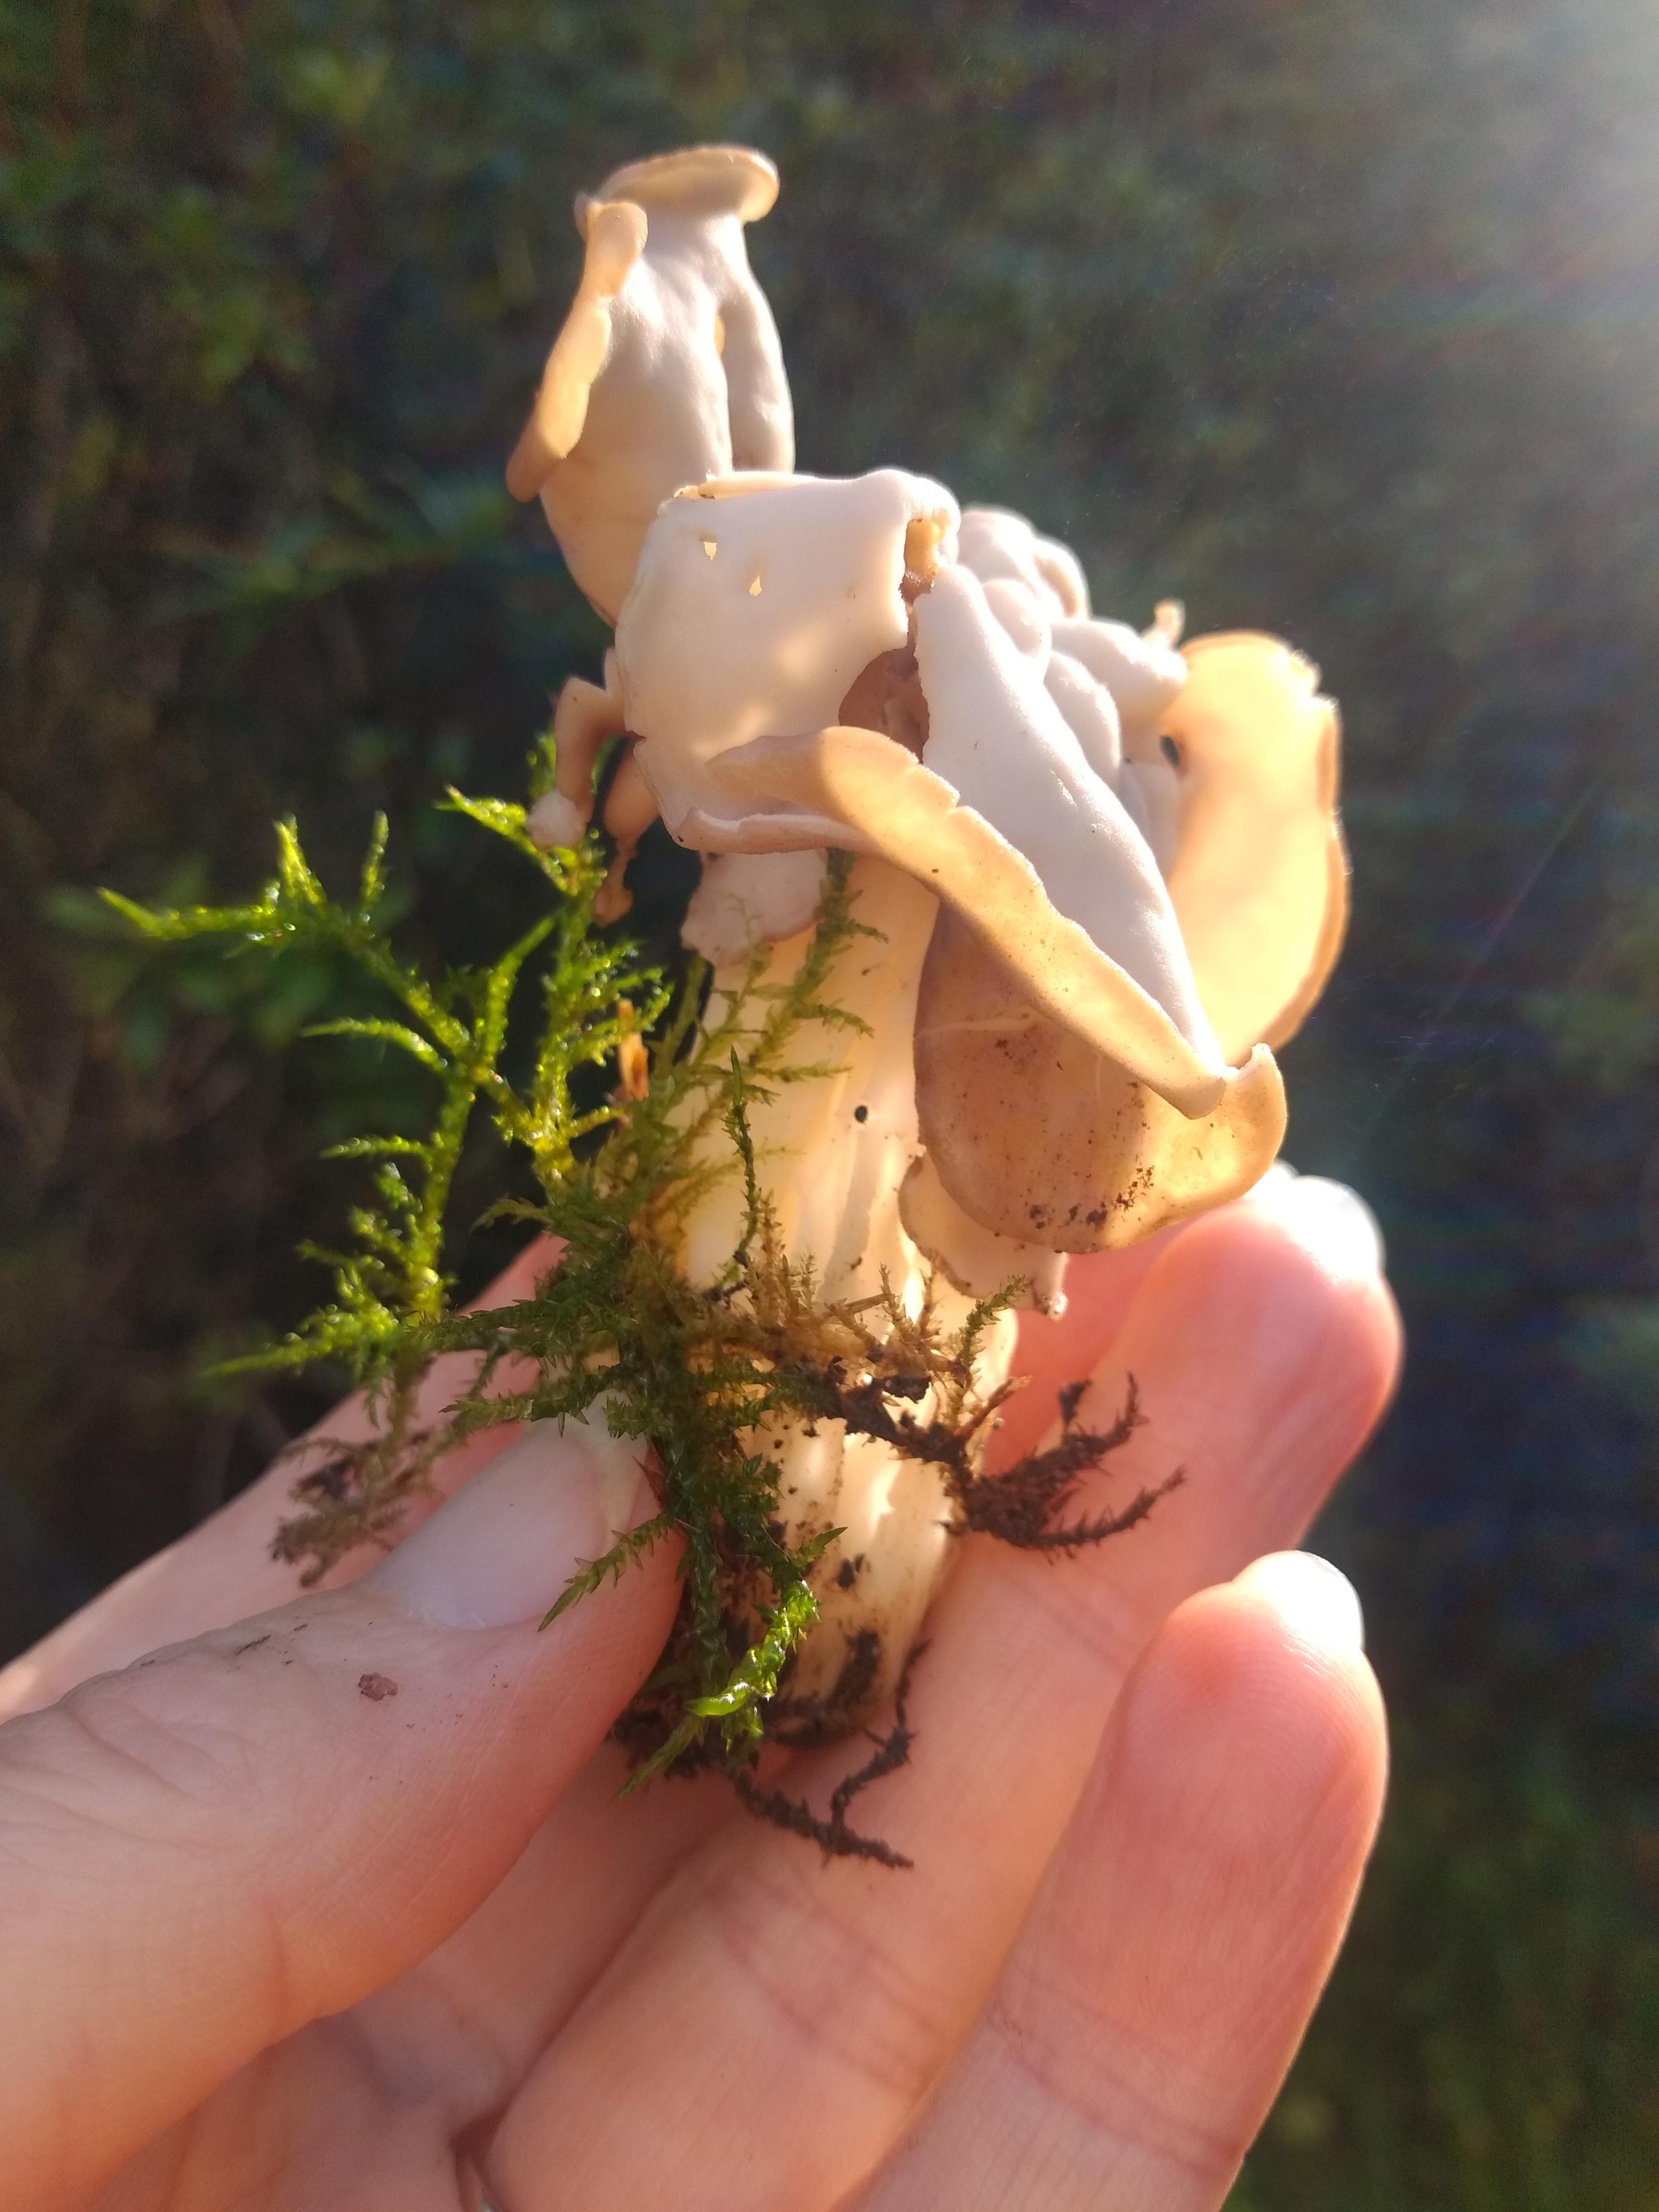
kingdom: Fungi
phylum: Ascomycota
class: Pezizomycetes
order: Pezizales
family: Helvellaceae
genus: Helvella
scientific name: Helvella crispa
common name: kruset foldhat
